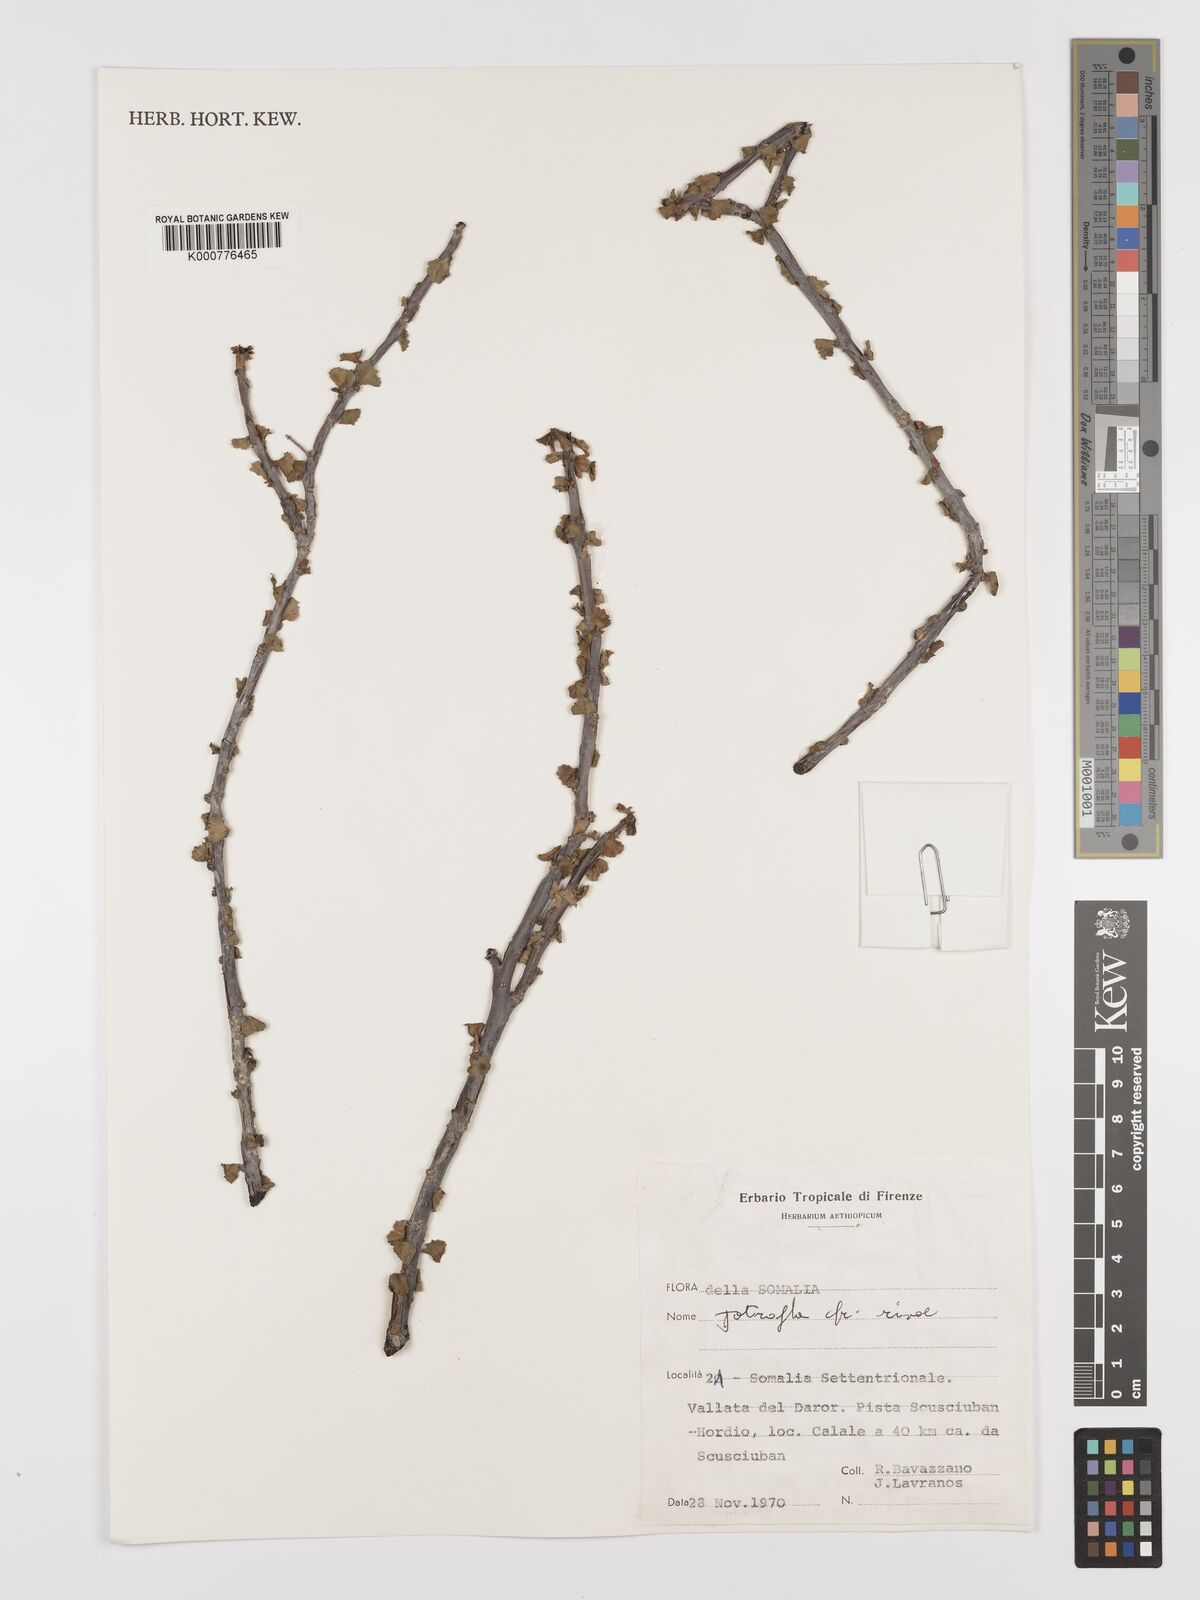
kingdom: Plantae
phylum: Tracheophyta
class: Magnoliopsida
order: Malpighiales
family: Euphorbiaceae
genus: Jatropha
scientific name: Jatropha rivae
